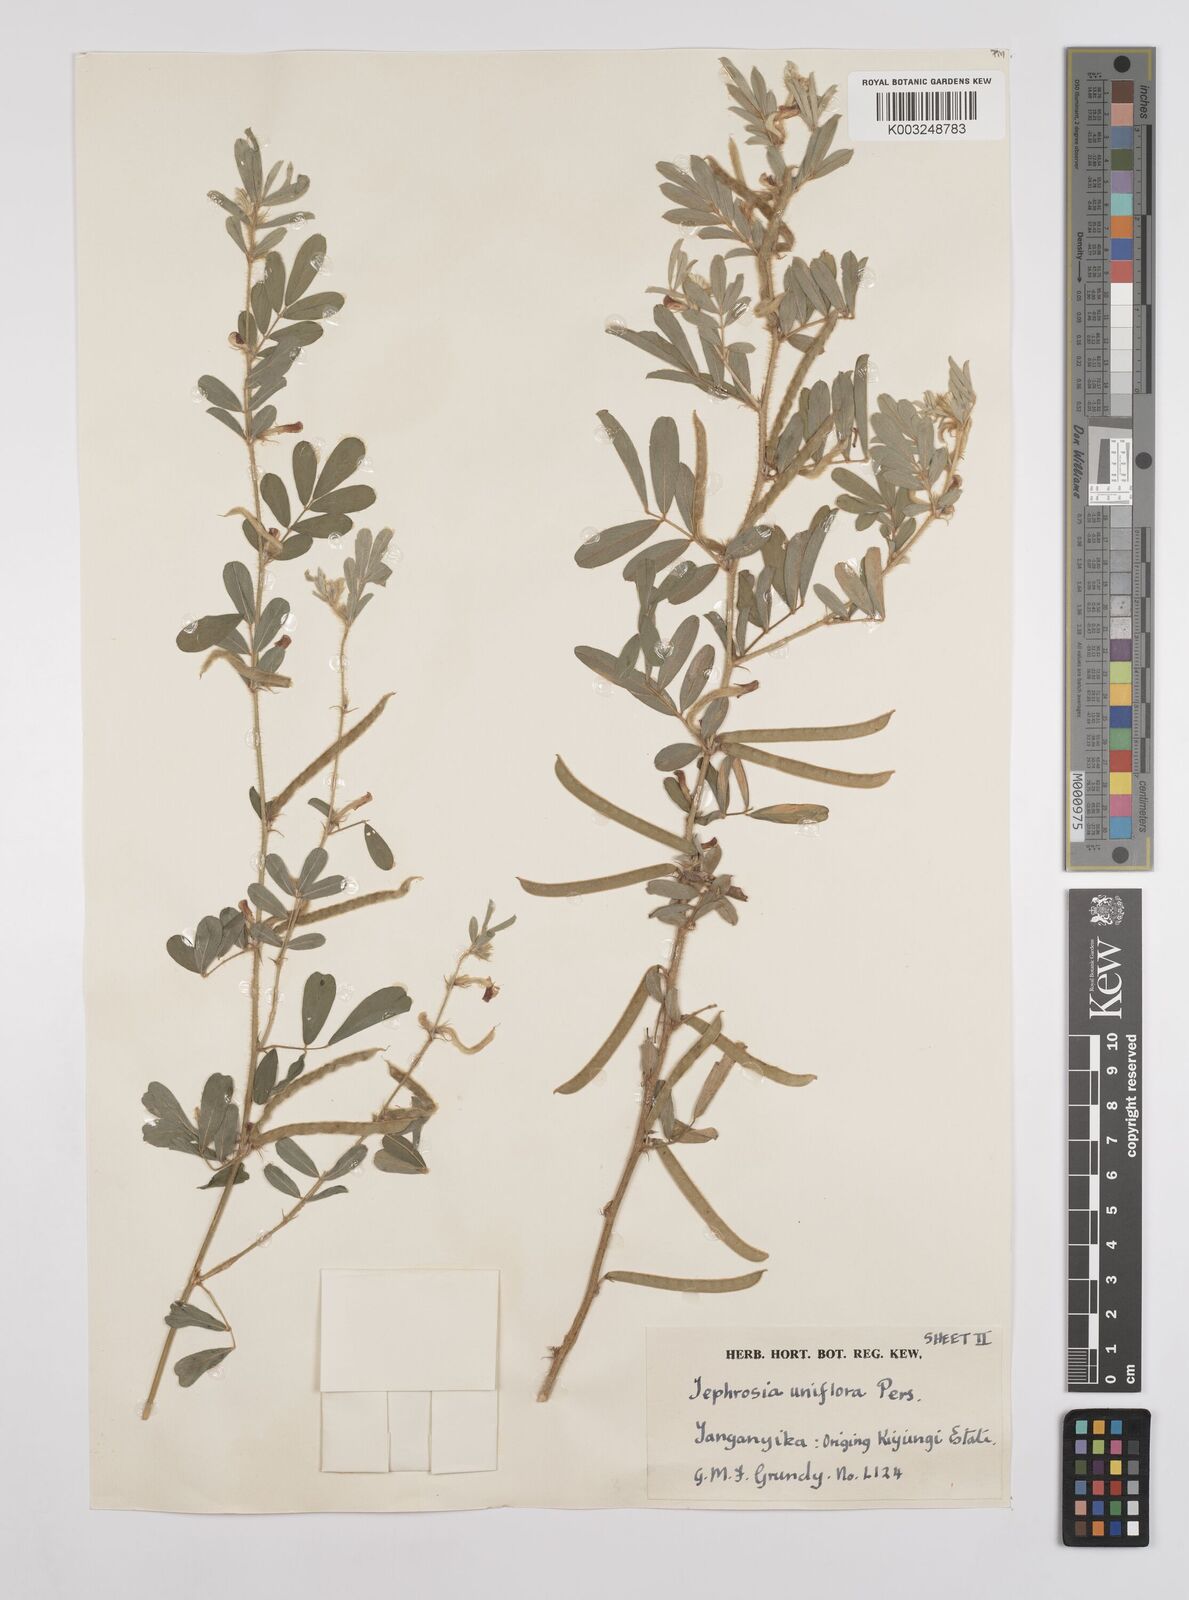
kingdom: Plantae
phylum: Tracheophyta
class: Magnoliopsida
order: Fabales
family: Fabaceae
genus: Tephrosia
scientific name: Tephrosia uniflora
